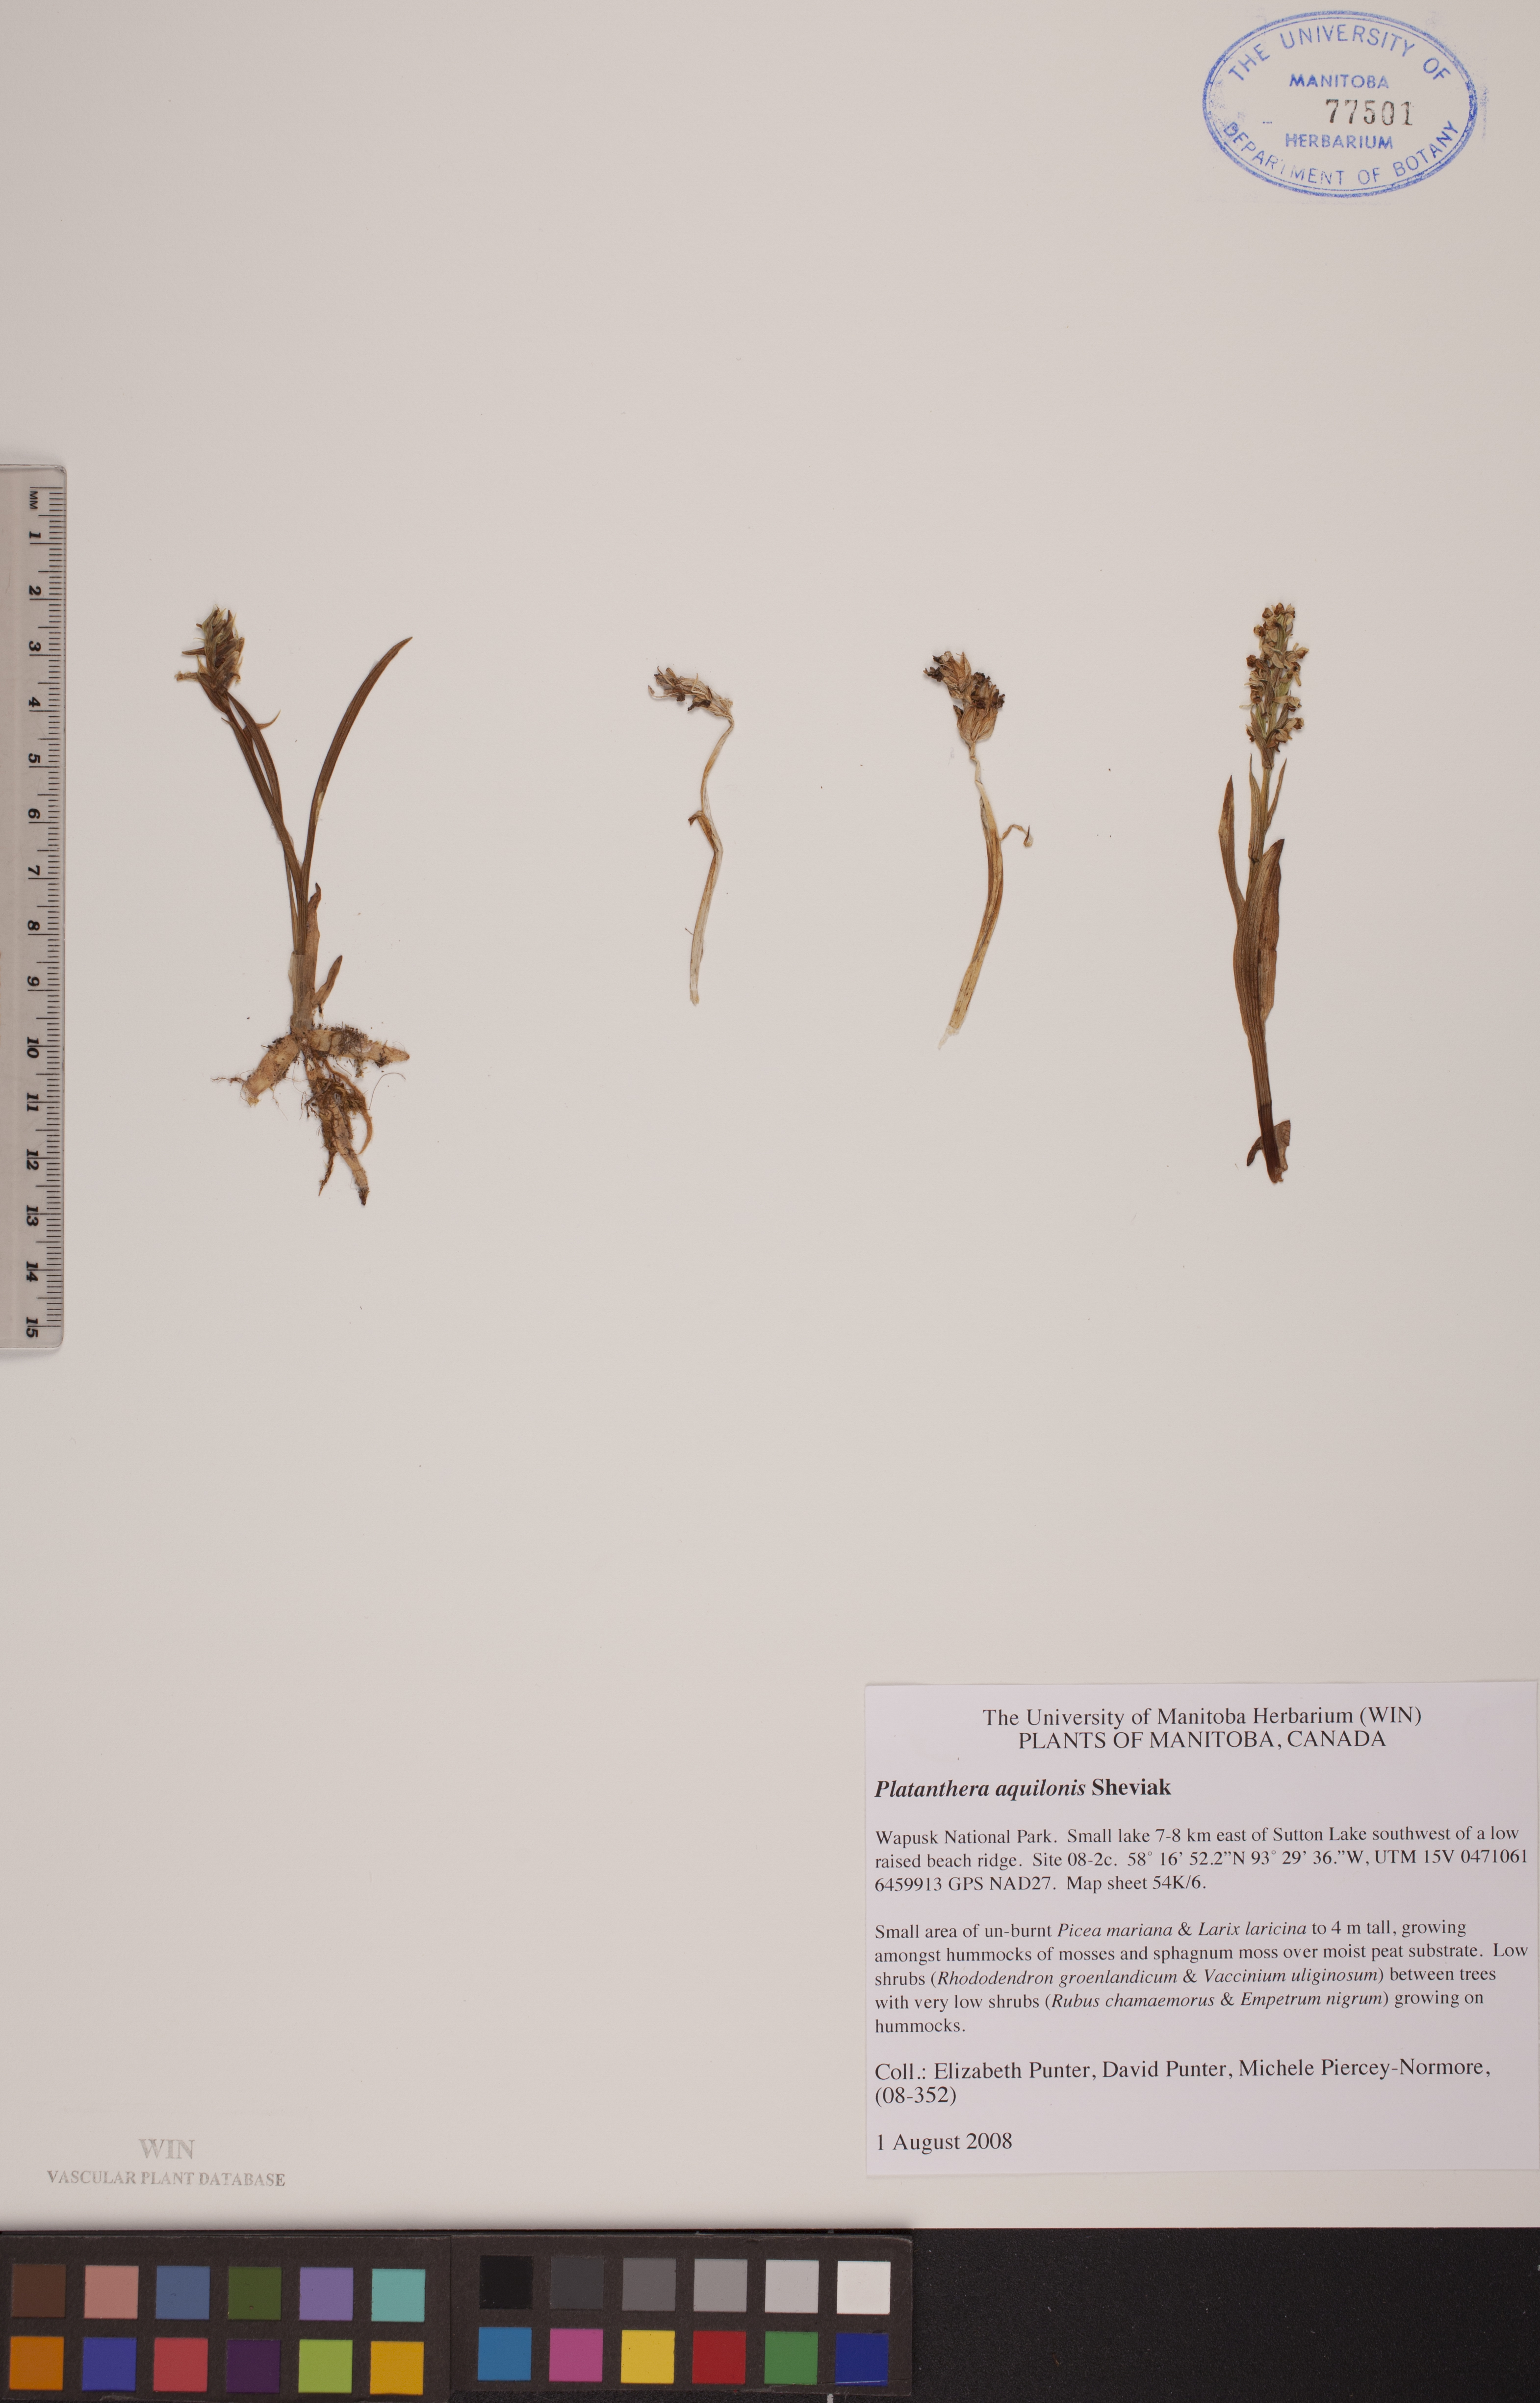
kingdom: Plantae
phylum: Tracheophyta
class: Liliopsida
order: Asparagales
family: Orchidaceae
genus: Platanthera
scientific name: Platanthera aquilonis
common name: Northern green orchid
